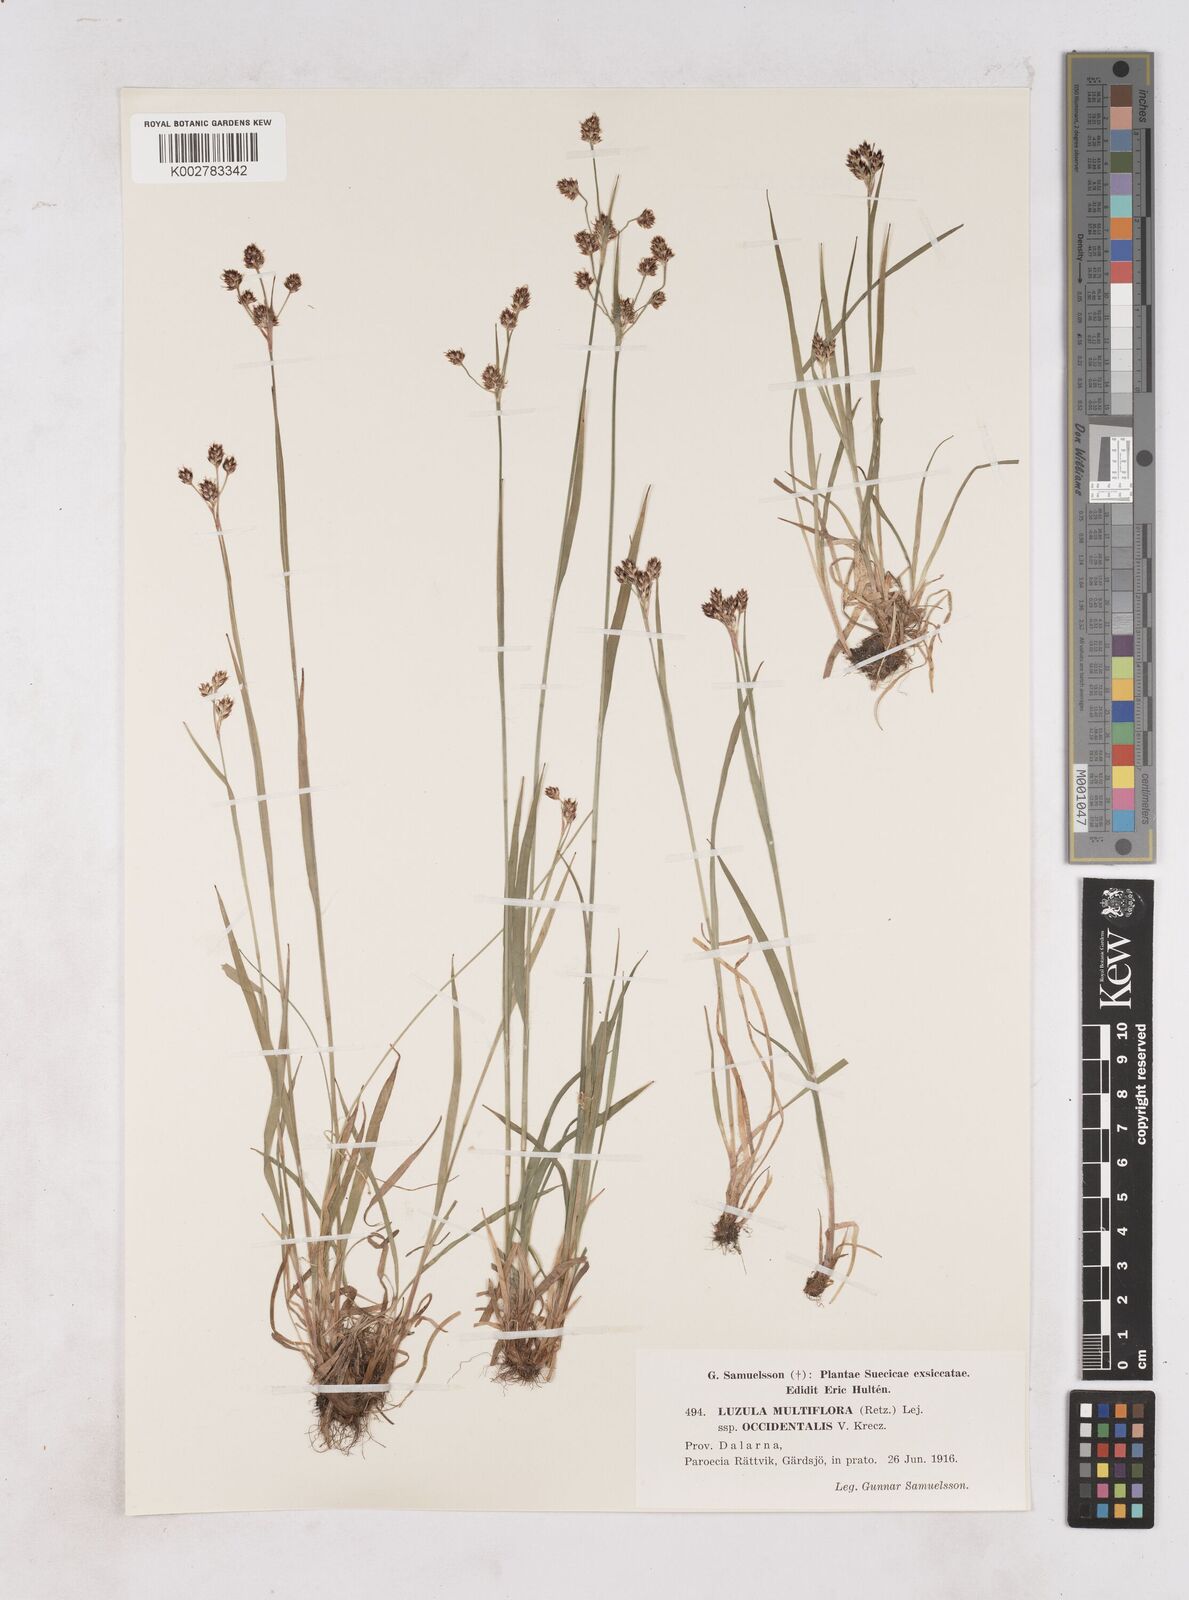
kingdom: Plantae
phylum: Tracheophyta
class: Liliopsida
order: Poales
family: Juncaceae
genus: Luzula
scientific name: Luzula multiflora
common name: Heath wood-rush
